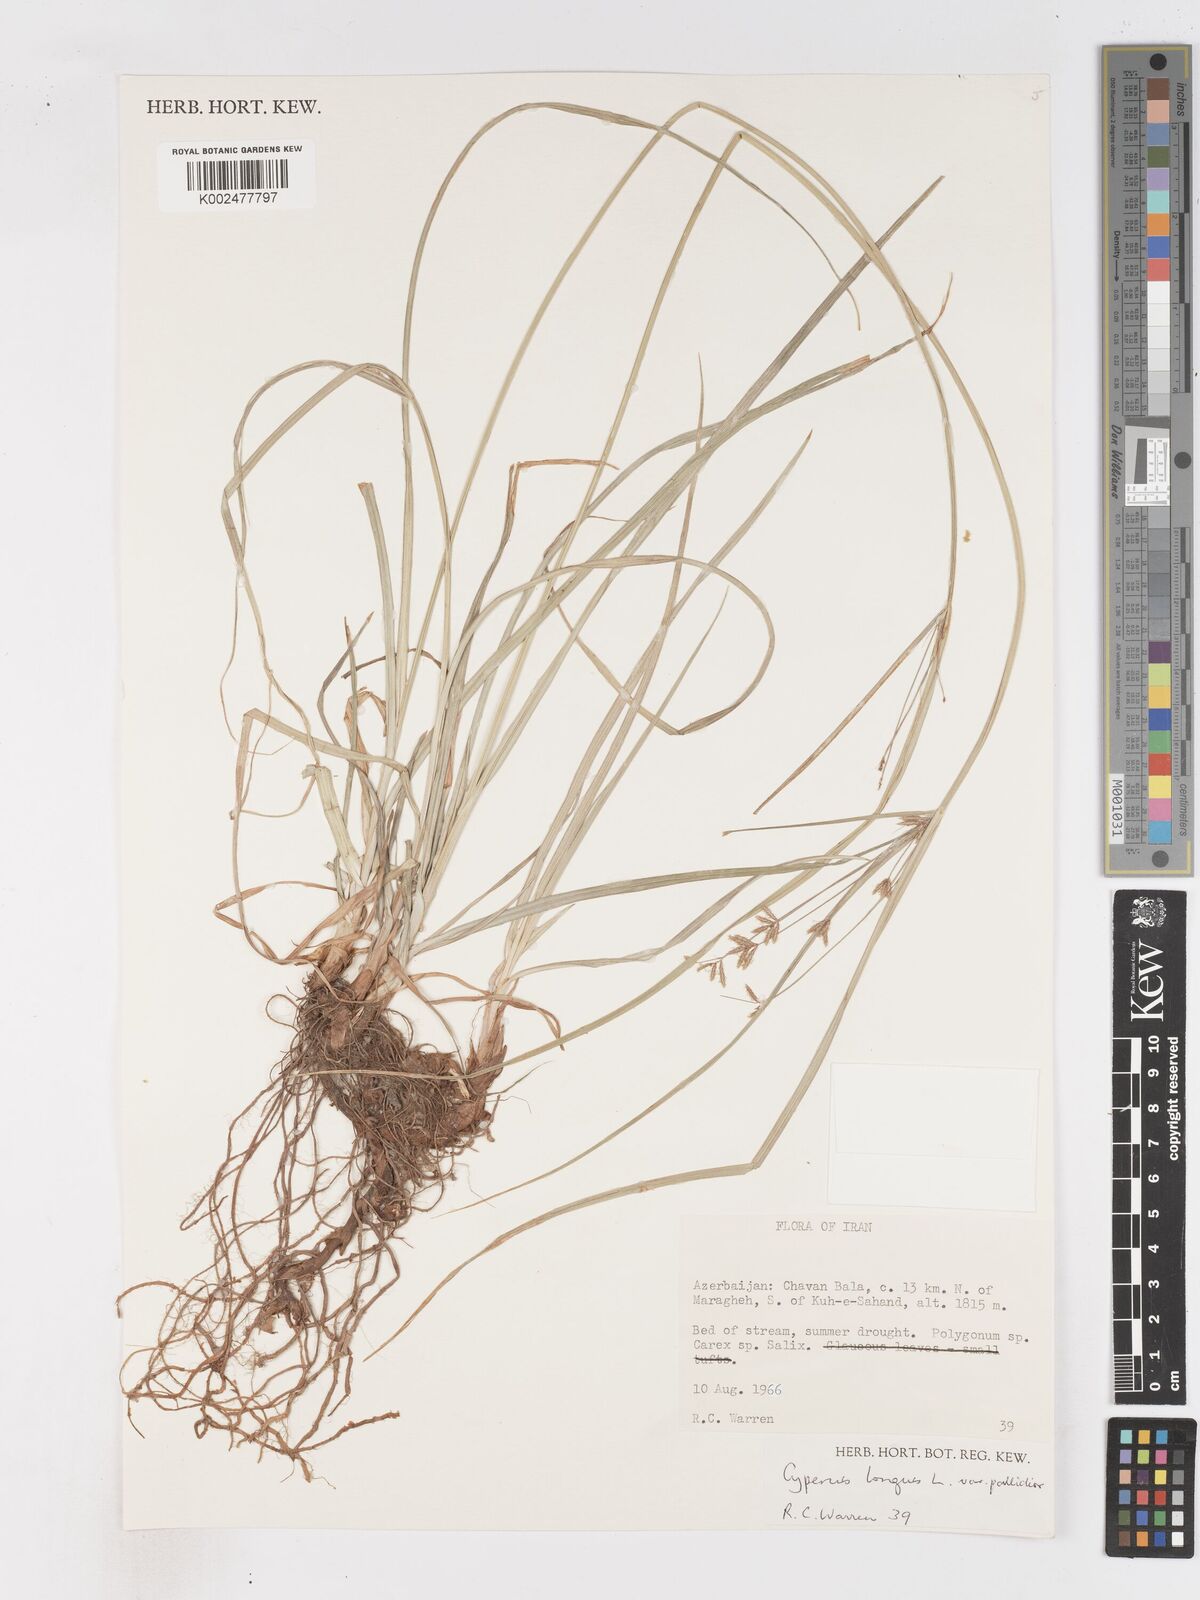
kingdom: Plantae
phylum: Tracheophyta
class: Liliopsida
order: Poales
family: Cyperaceae
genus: Cyperus
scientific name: Cyperus longus
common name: Galingale
